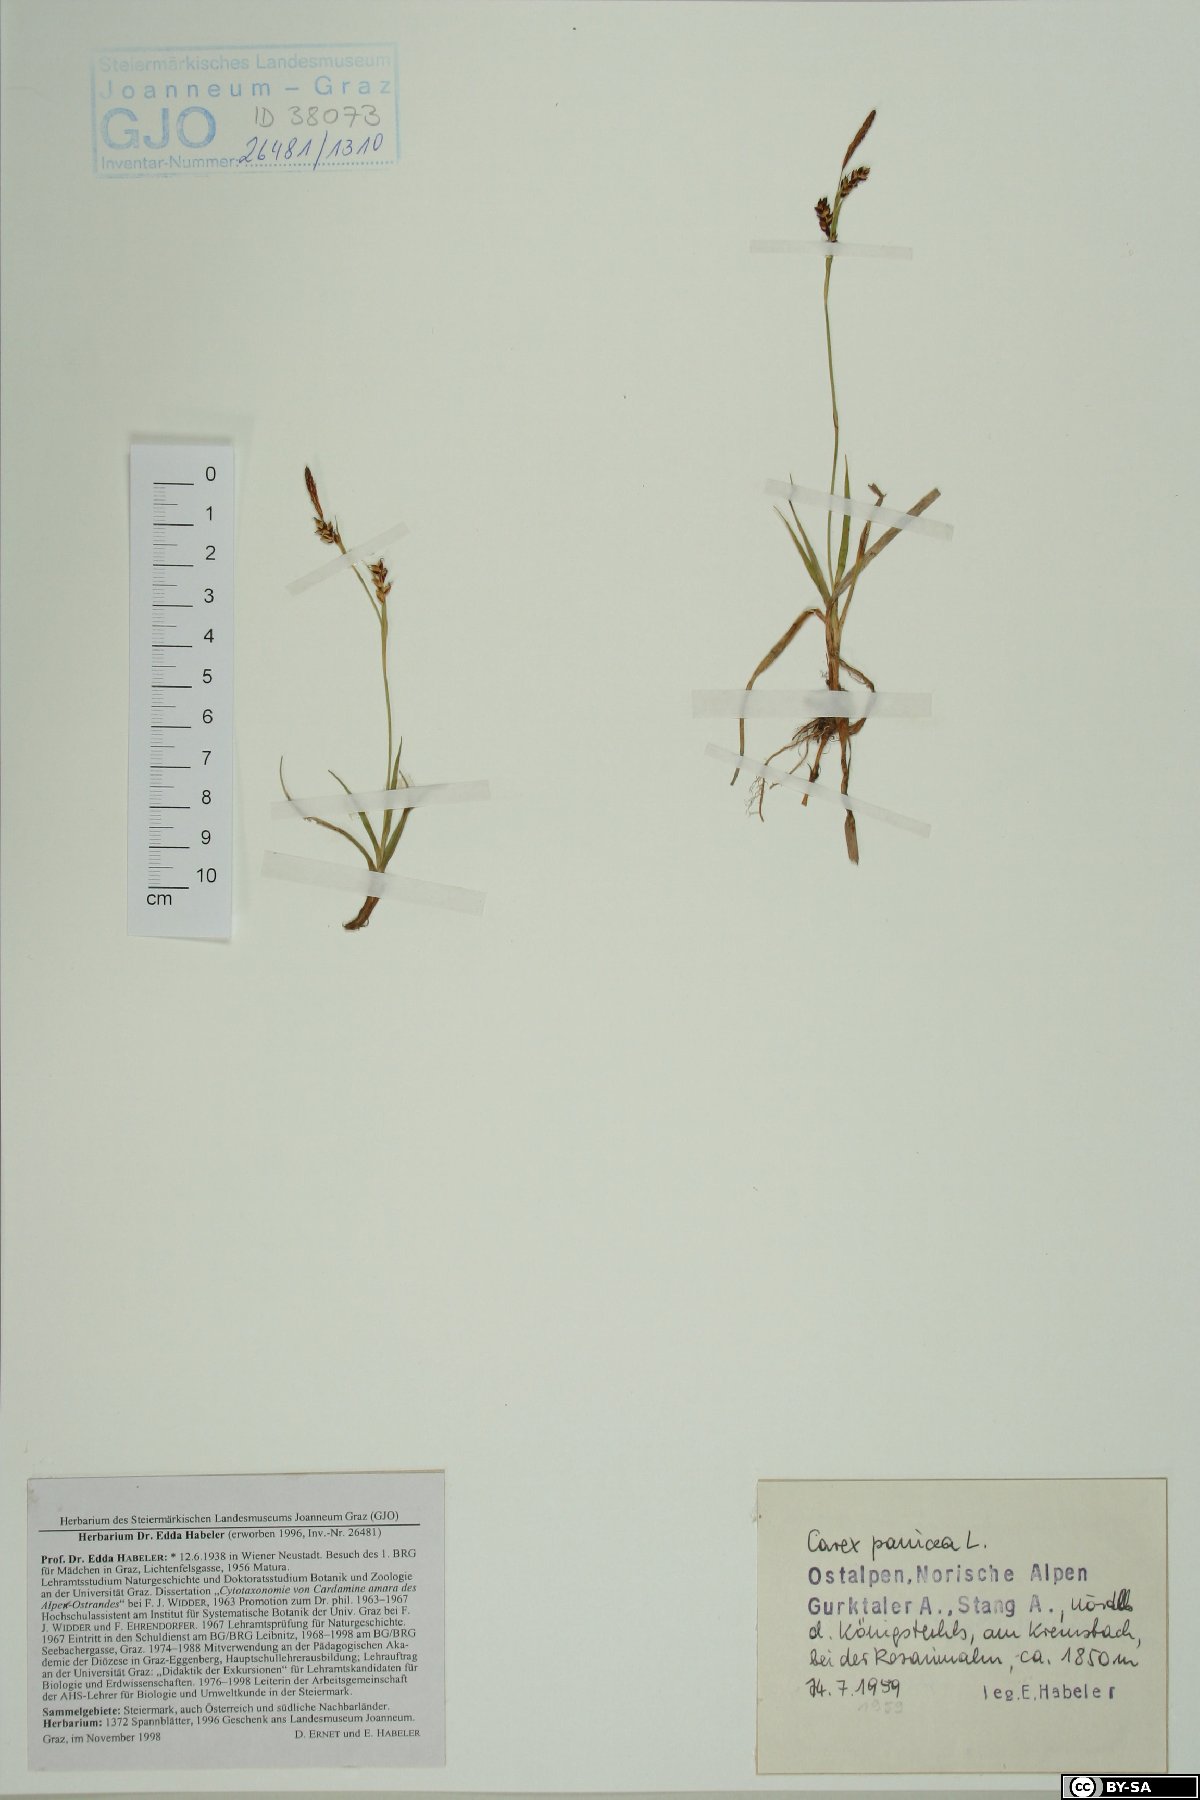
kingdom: Plantae
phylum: Tracheophyta
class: Liliopsida
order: Poales
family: Cyperaceae
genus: Carex
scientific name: Carex panicea
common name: Carnation sedge
